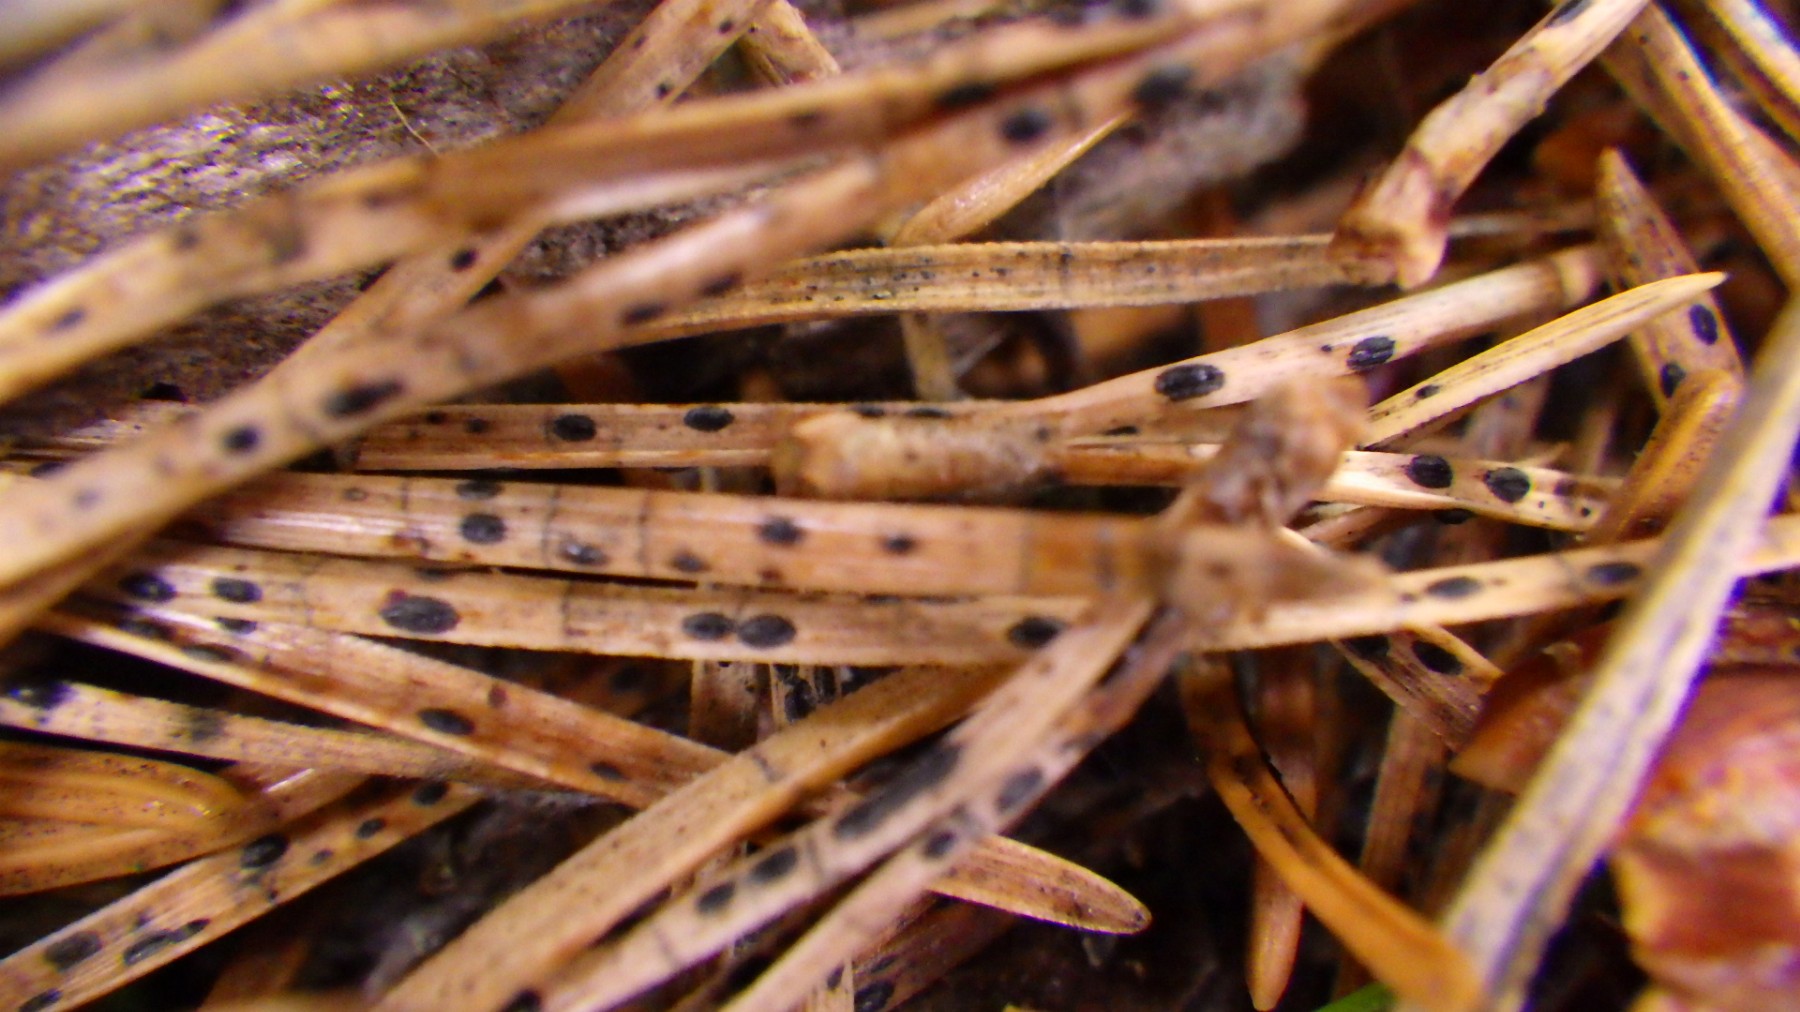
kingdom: Fungi
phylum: Ascomycota
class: Leotiomycetes
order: Rhytismatales
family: Rhytismataceae
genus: Lophodermium
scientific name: Lophodermium pinastri
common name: fyrre-fureplet
